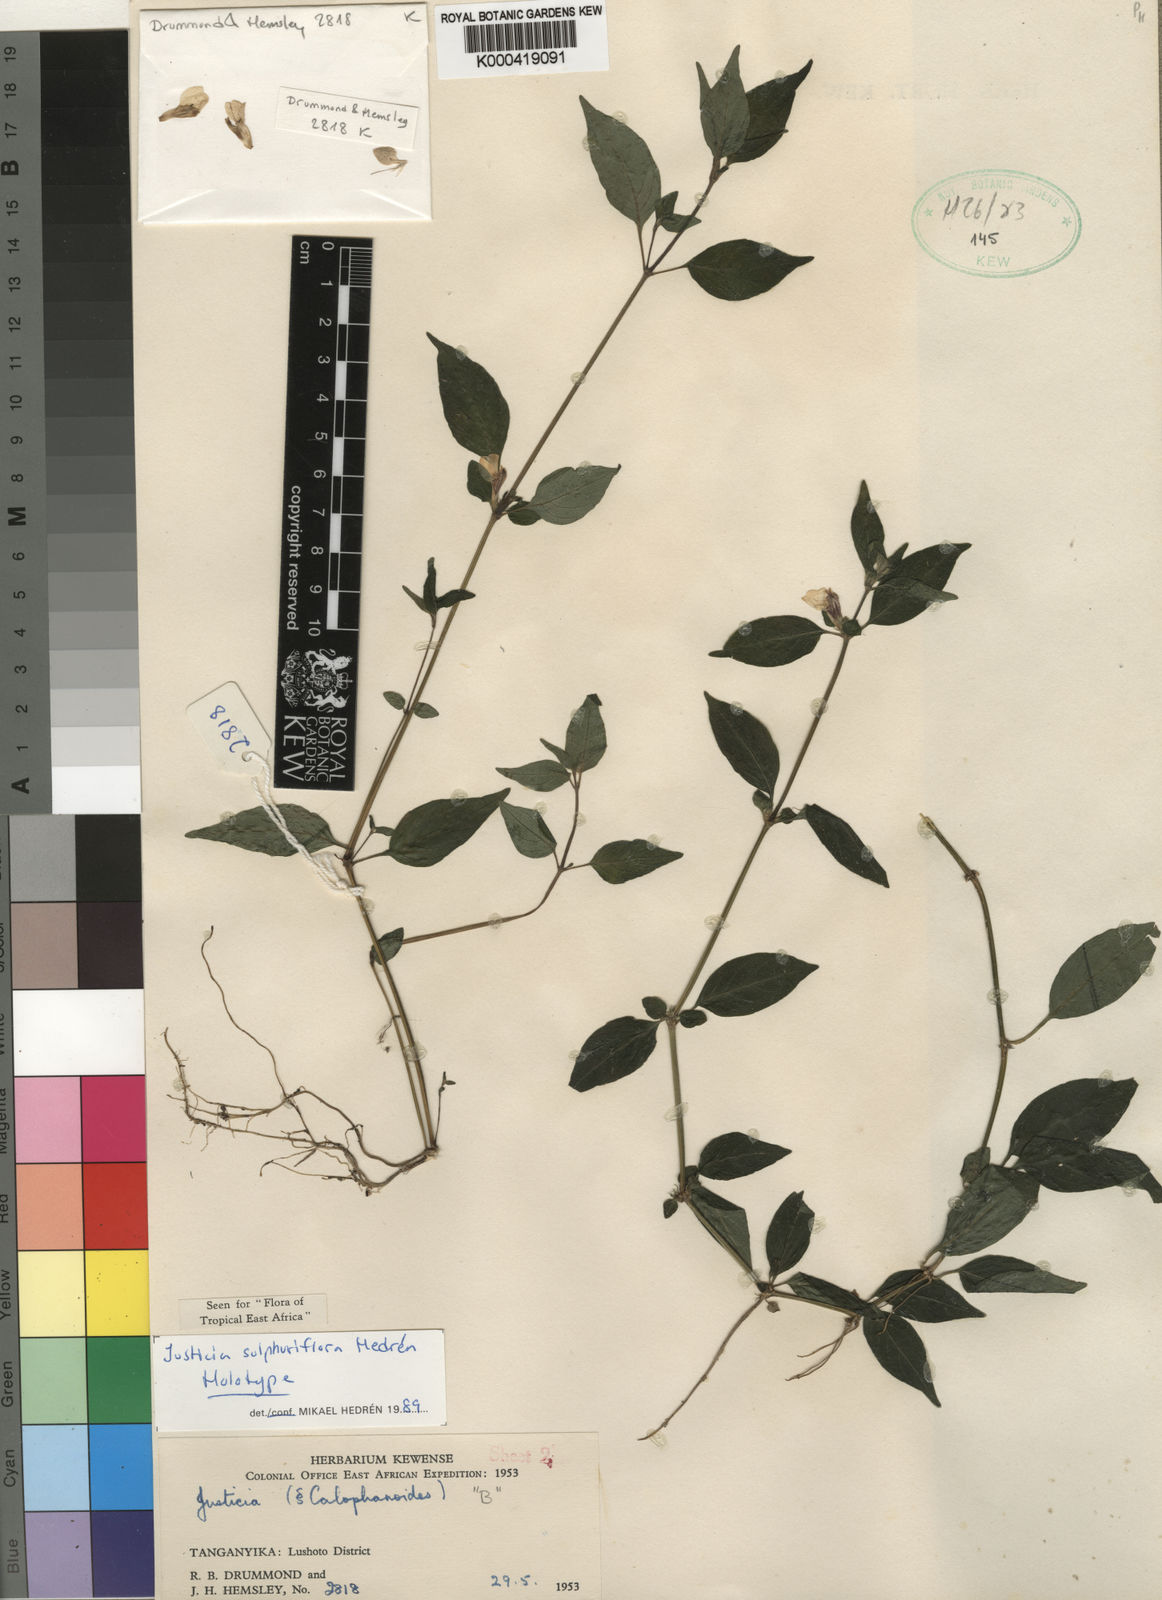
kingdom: Plantae
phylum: Tracheophyta
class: Magnoliopsida
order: Lamiales
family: Acanthaceae
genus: Justicia
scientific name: Justicia
